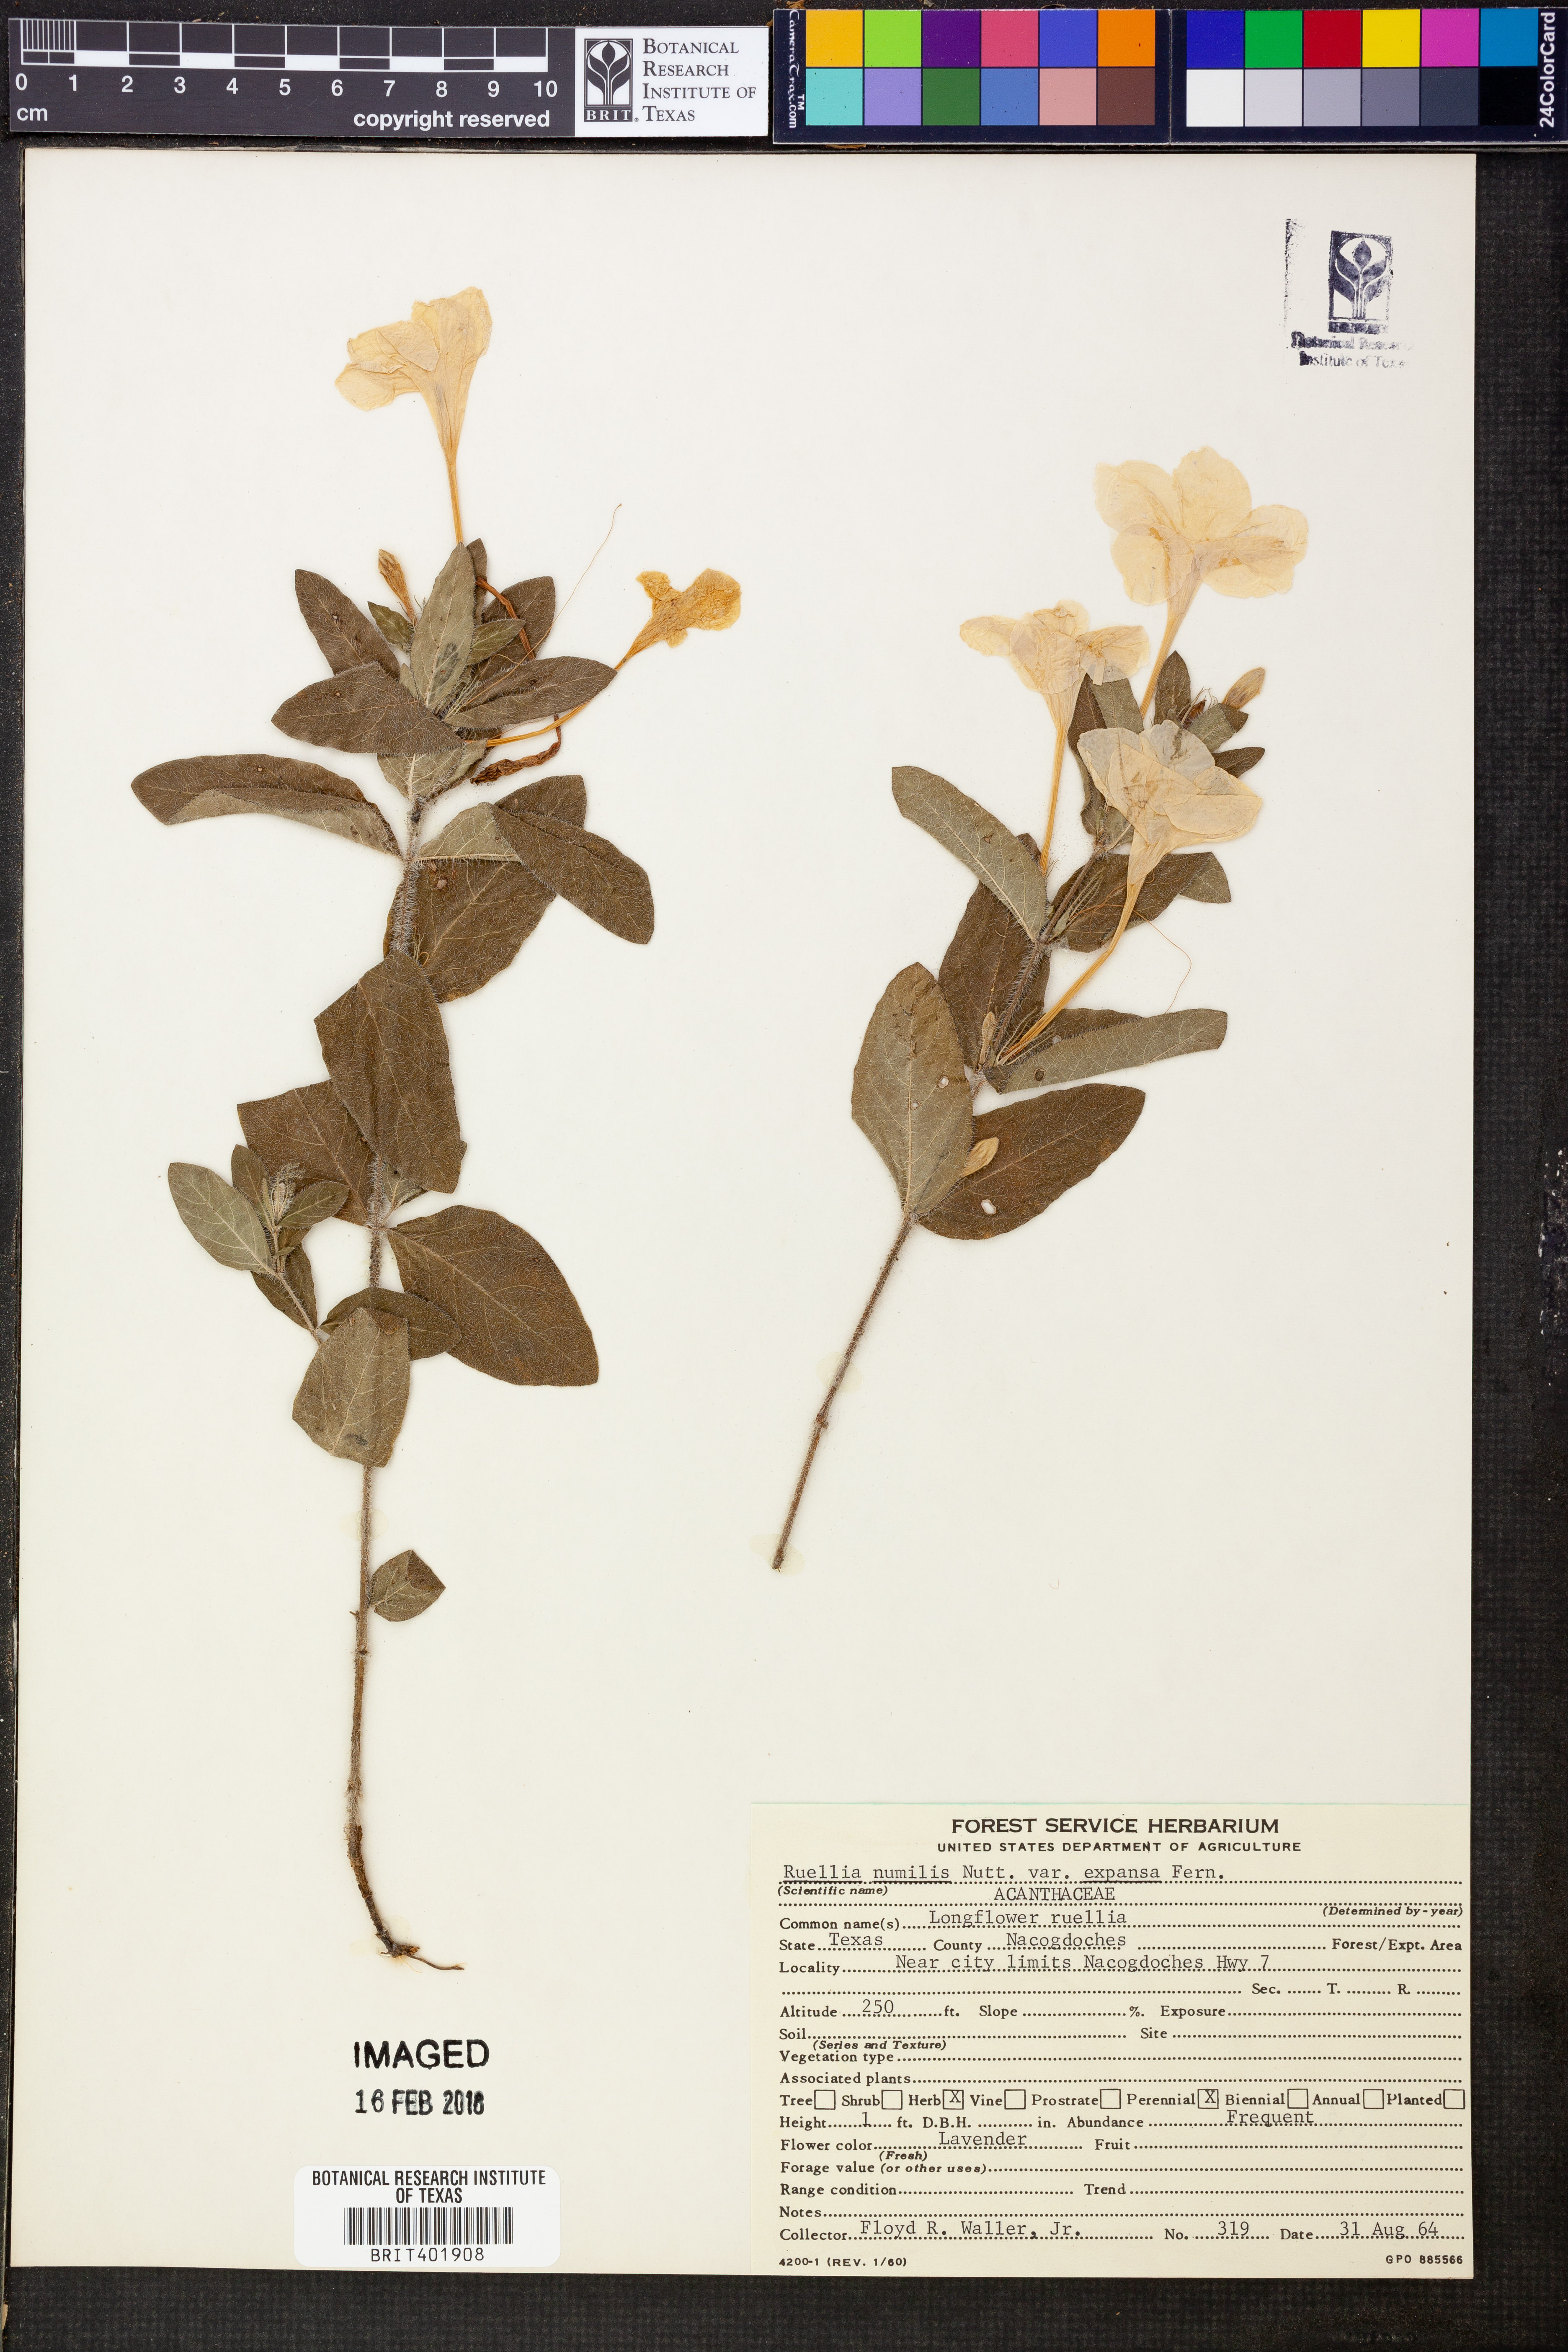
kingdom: Plantae
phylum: Tracheophyta
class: Magnoliopsida
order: Lamiales
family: Acanthaceae
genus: Ruellia
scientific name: Ruellia humilis
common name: Fringe-leaf ruellia
